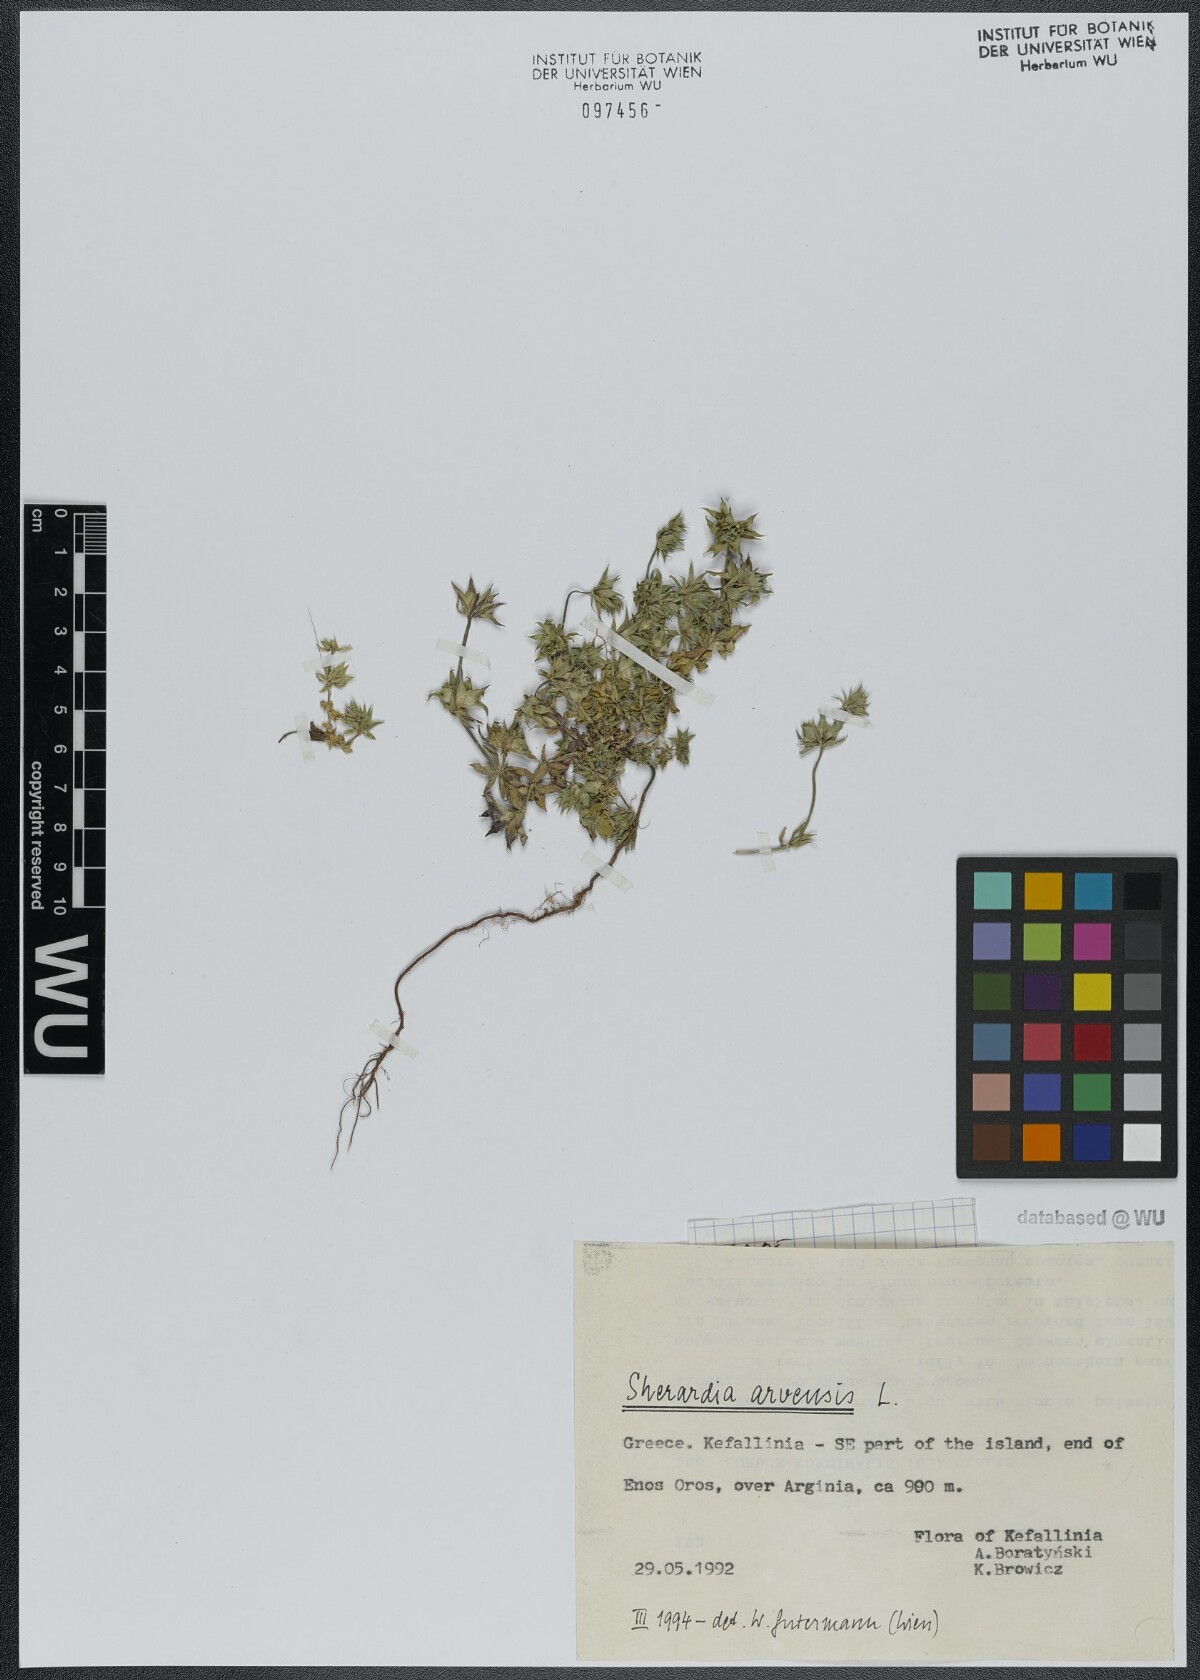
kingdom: Plantae
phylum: Tracheophyta
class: Magnoliopsida
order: Gentianales
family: Rubiaceae
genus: Sherardia
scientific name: Sherardia arvensis
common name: Field madder
